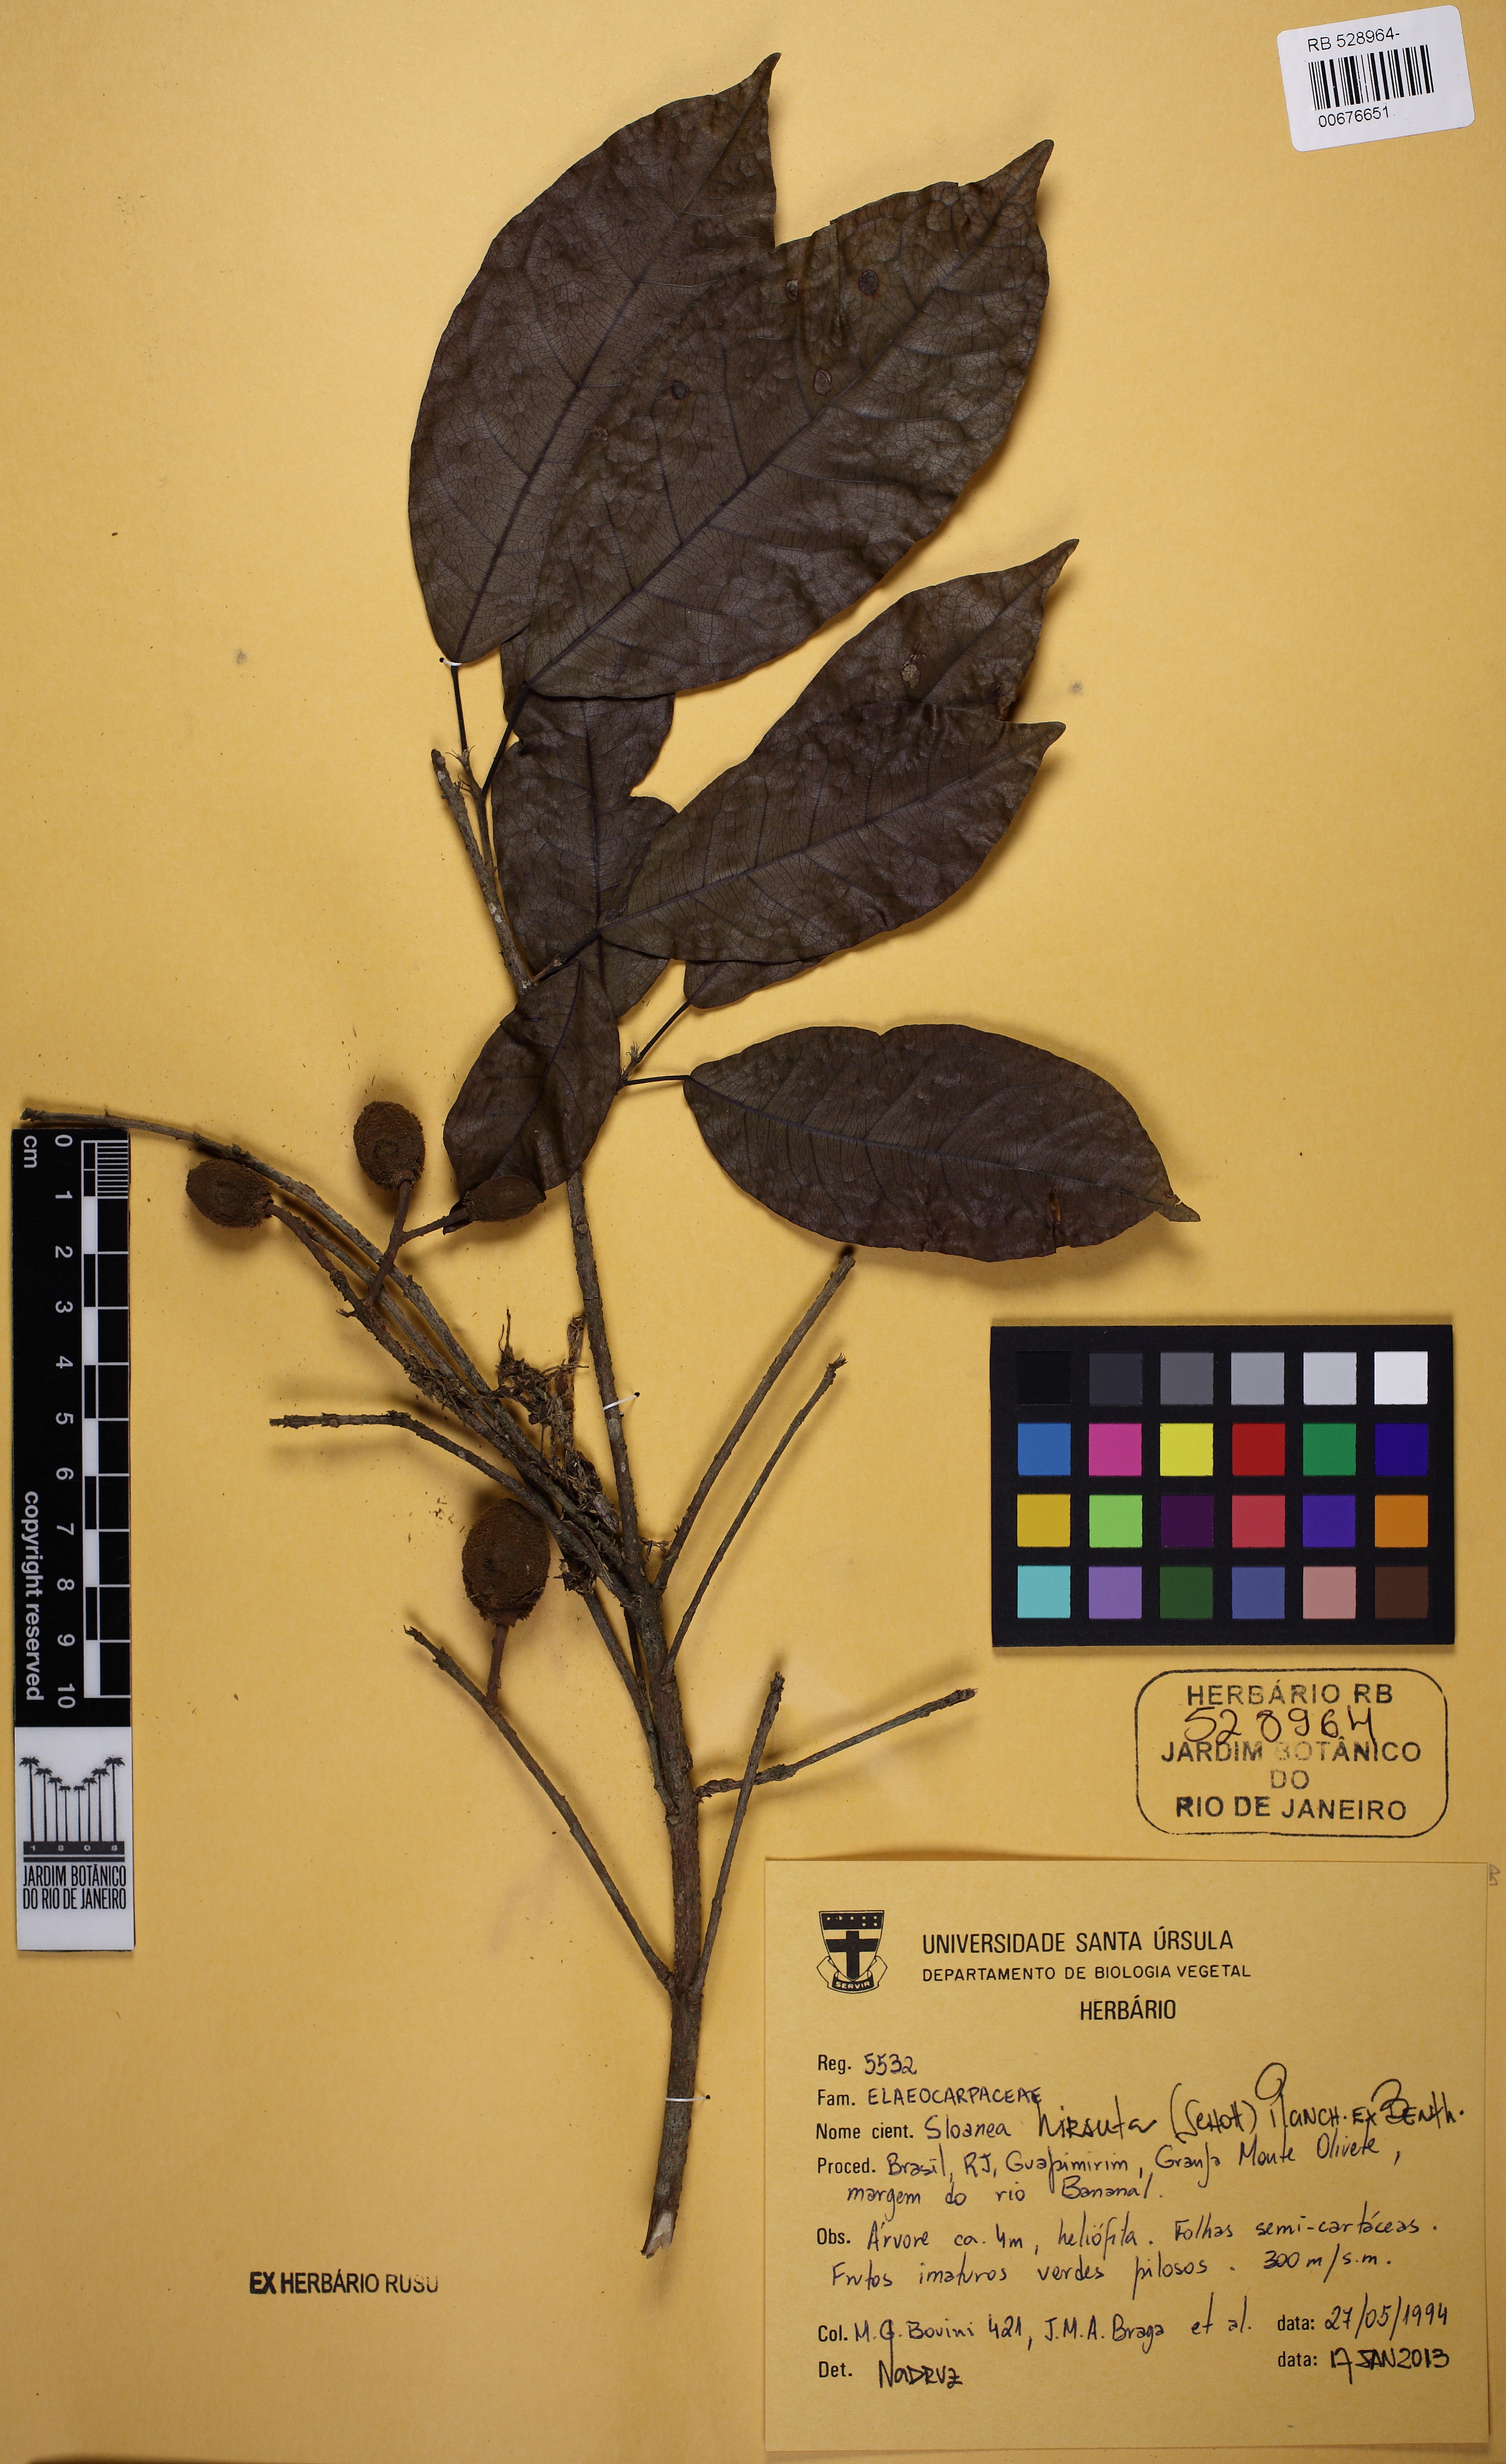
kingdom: Plantae
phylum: Tracheophyta
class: Magnoliopsida
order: Oxalidales
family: Elaeocarpaceae
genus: Sloanea
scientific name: Sloanea hirsuta
